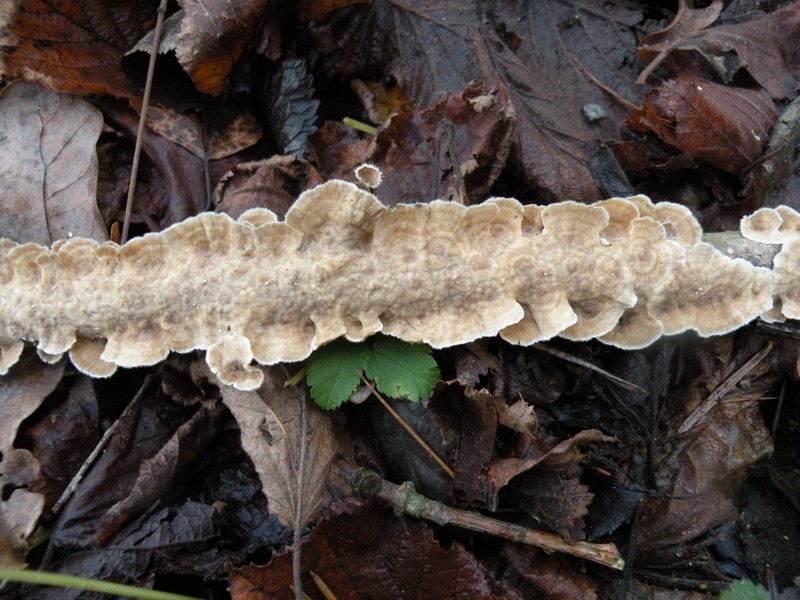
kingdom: Fungi
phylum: Basidiomycota
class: Agaricomycetes
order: Russulales
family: Stereaceae
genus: Stereum
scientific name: Stereum complicatum
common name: liden lædersvamp
